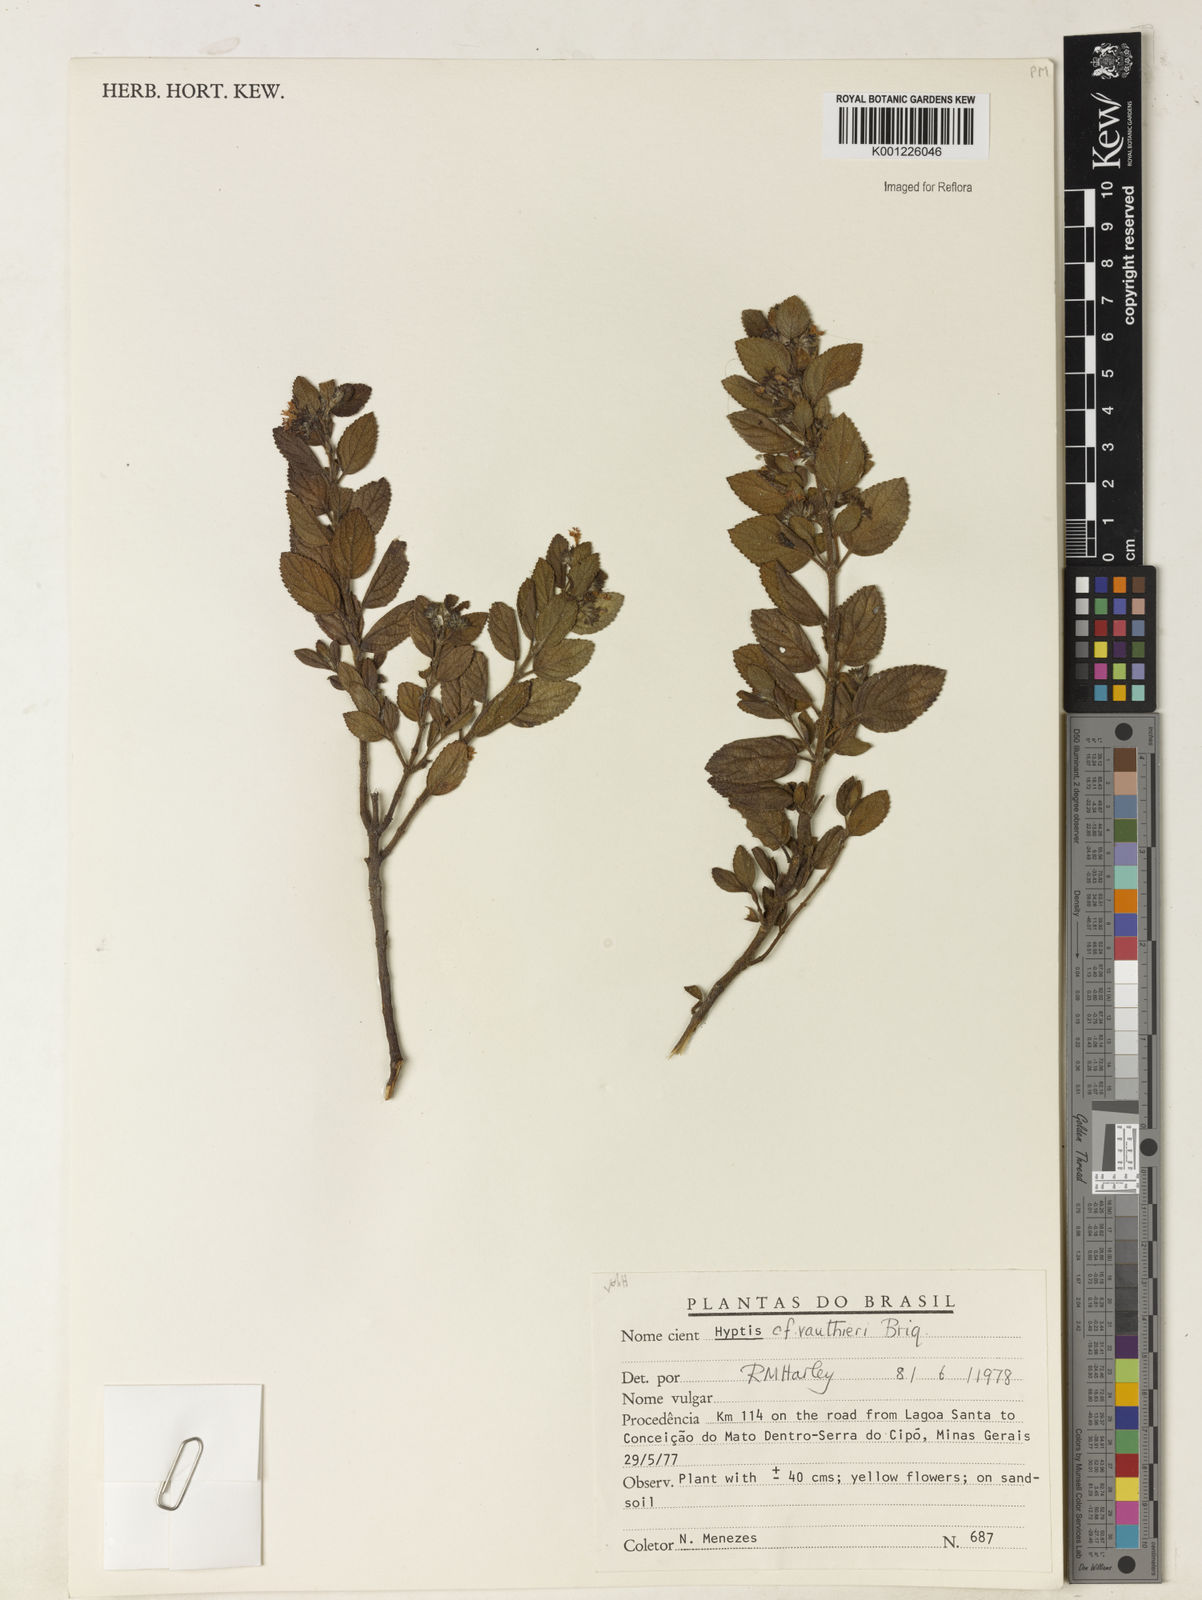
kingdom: Plantae
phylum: Tracheophyta
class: Magnoliopsida
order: Lamiales
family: Lamiaceae
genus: Hyptidendron
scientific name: Hyptidendron vauthieri
